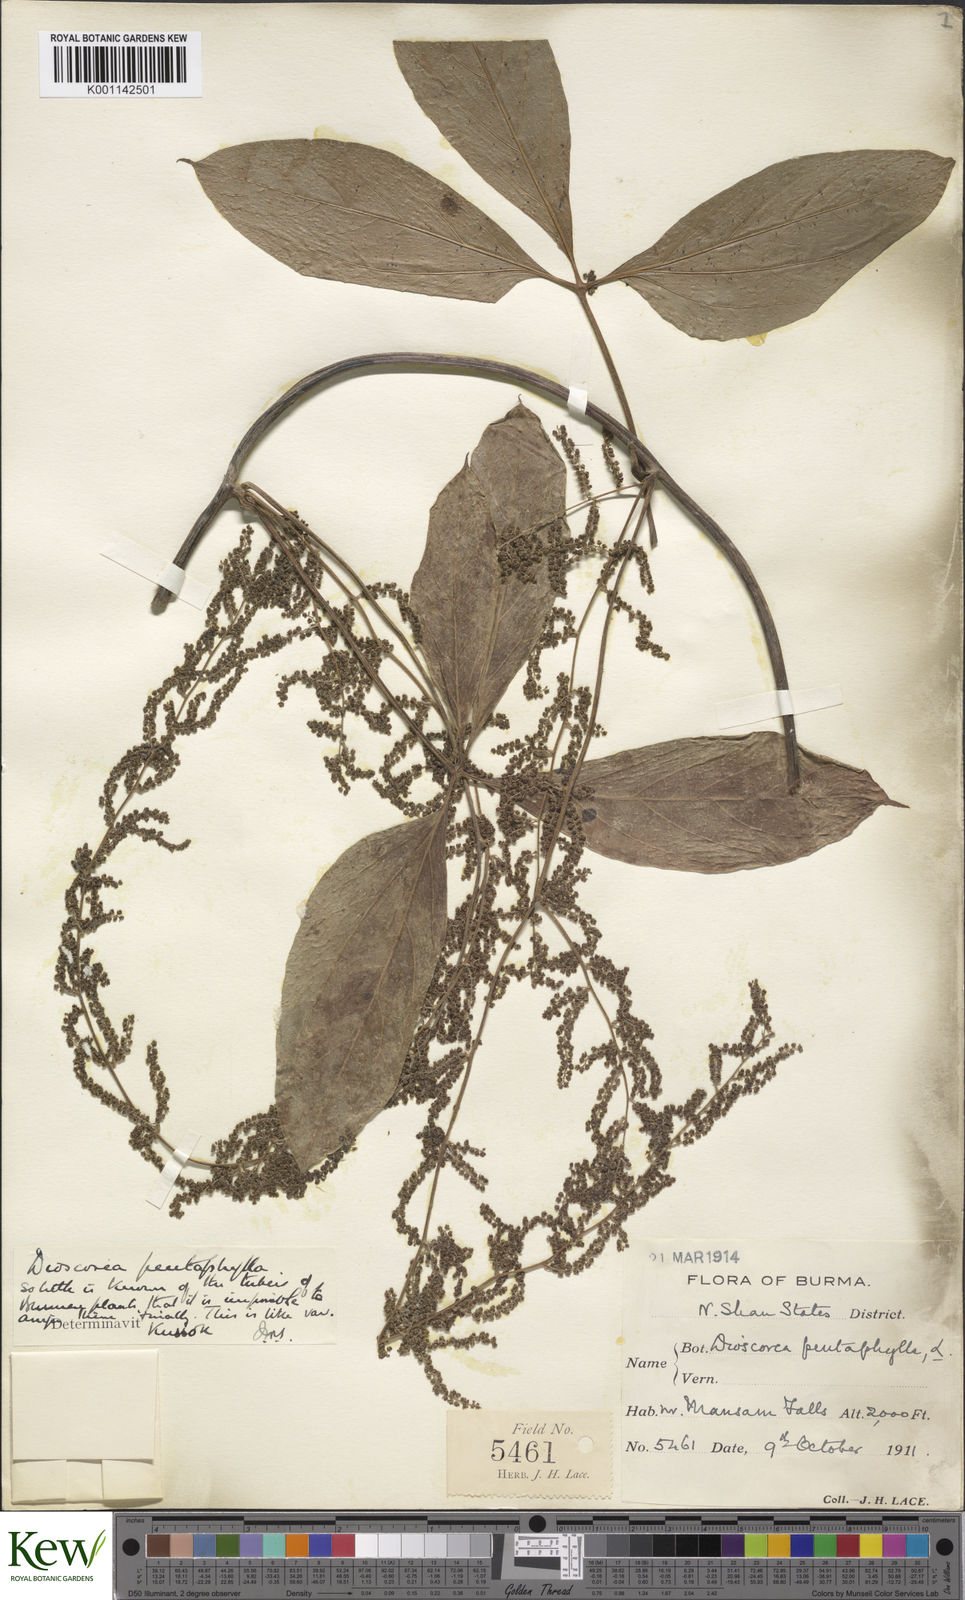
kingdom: Plantae
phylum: Tracheophyta
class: Liliopsida
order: Dioscoreales
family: Dioscoreaceae
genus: Dioscorea
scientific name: Dioscorea pentaphylla
